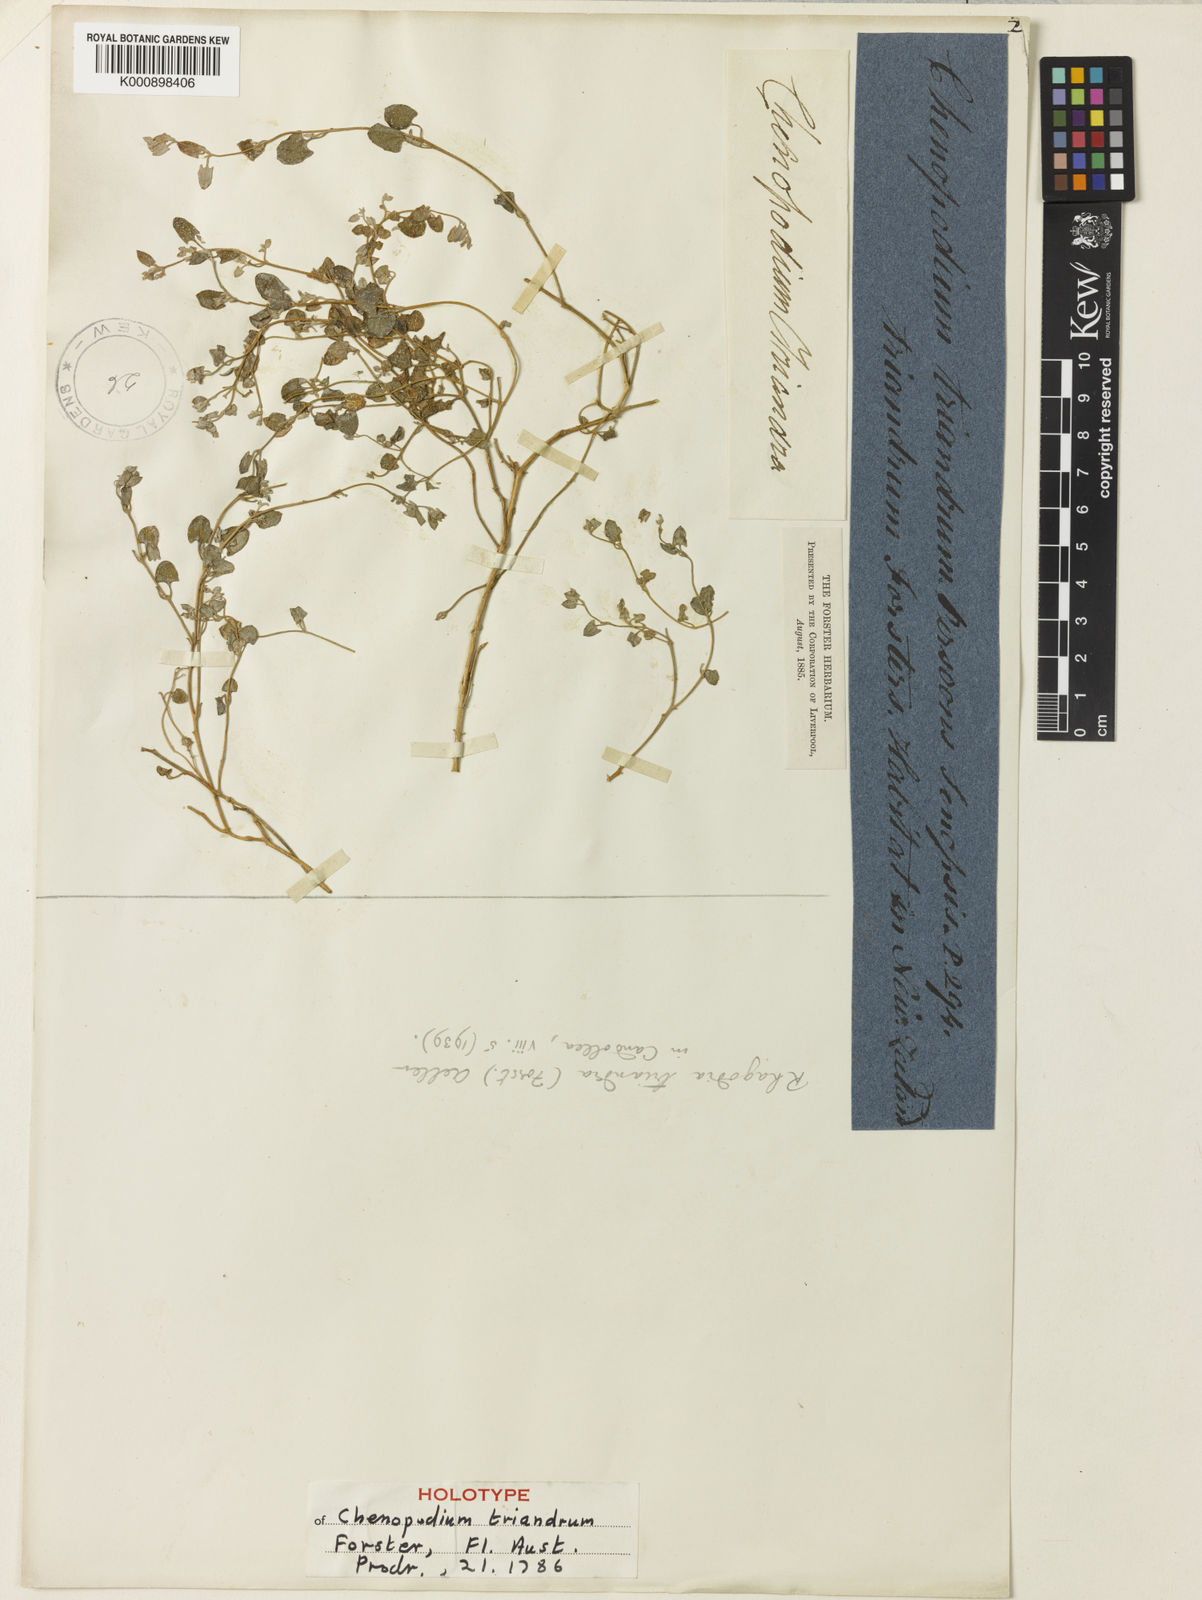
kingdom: Plantae
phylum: Tracheophyta
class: Magnoliopsida
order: Caryophyllales
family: Amaranthaceae
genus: Chenopodium
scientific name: Chenopodium triandrum
